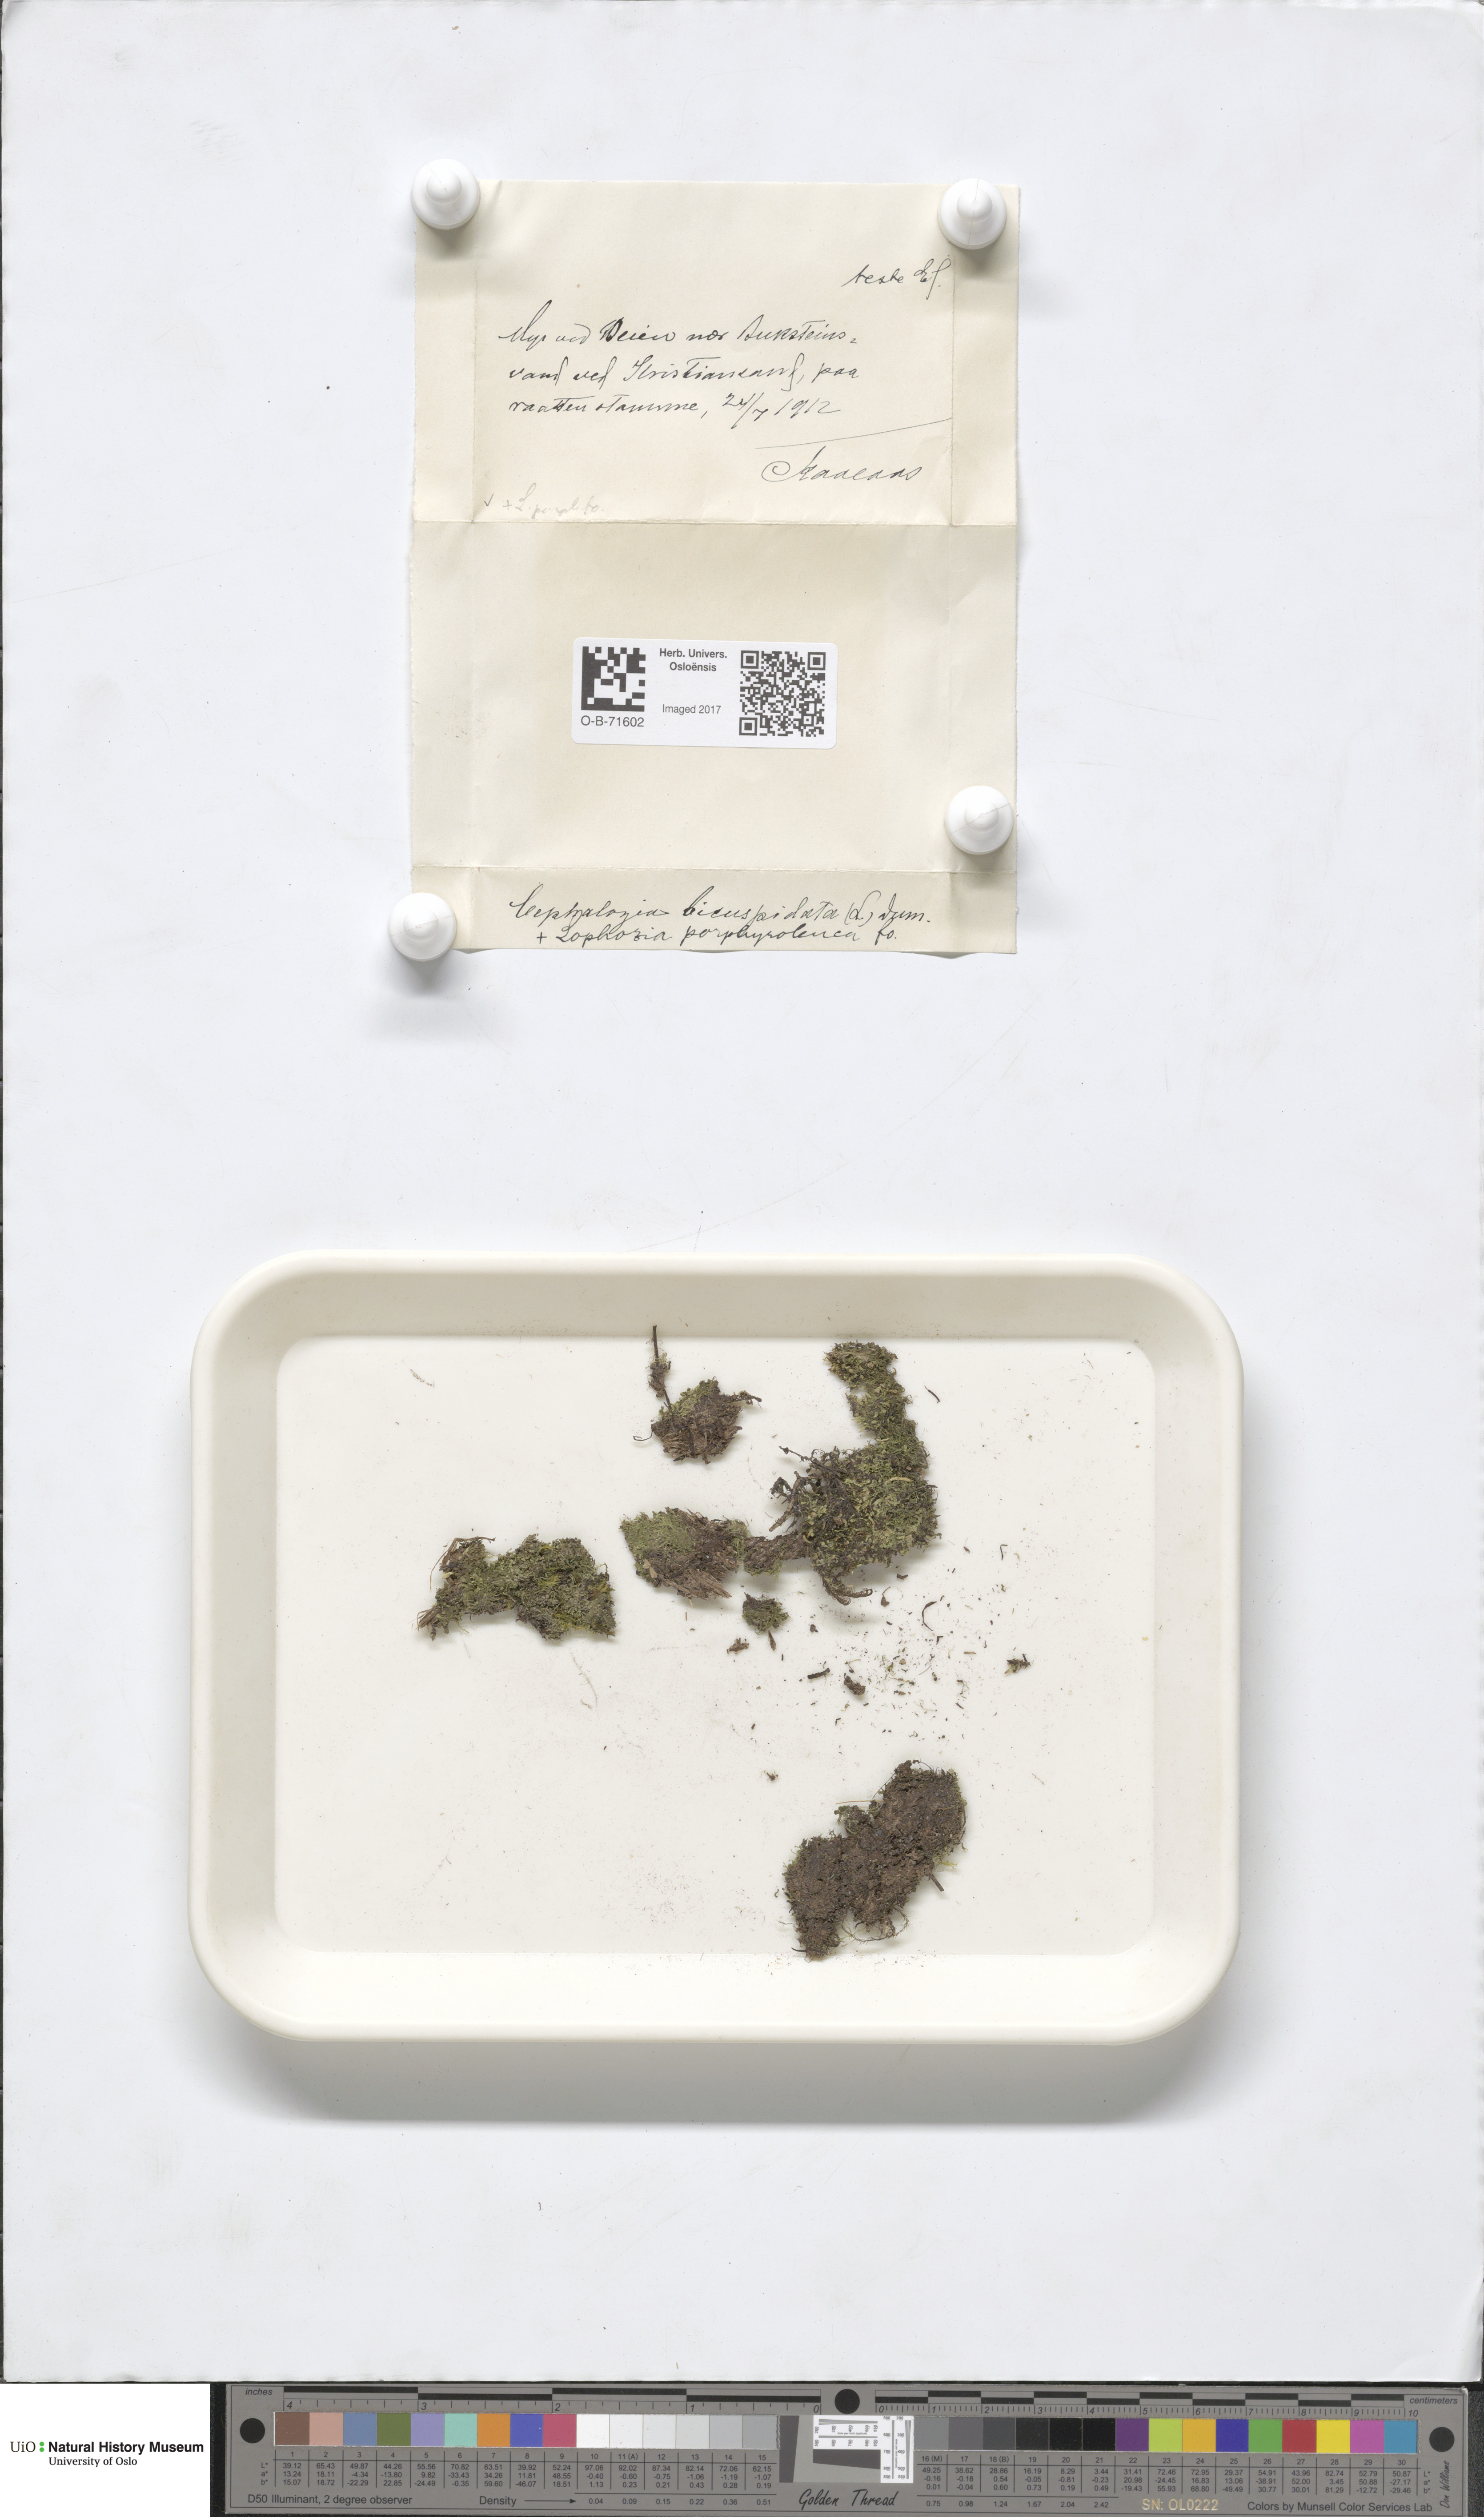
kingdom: Plantae
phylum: Marchantiophyta
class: Jungermanniopsida
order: Jungermanniales
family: Cephaloziaceae
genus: Cephalozia
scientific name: Cephalozia bicuspidata
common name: Two-horned pincerwort
